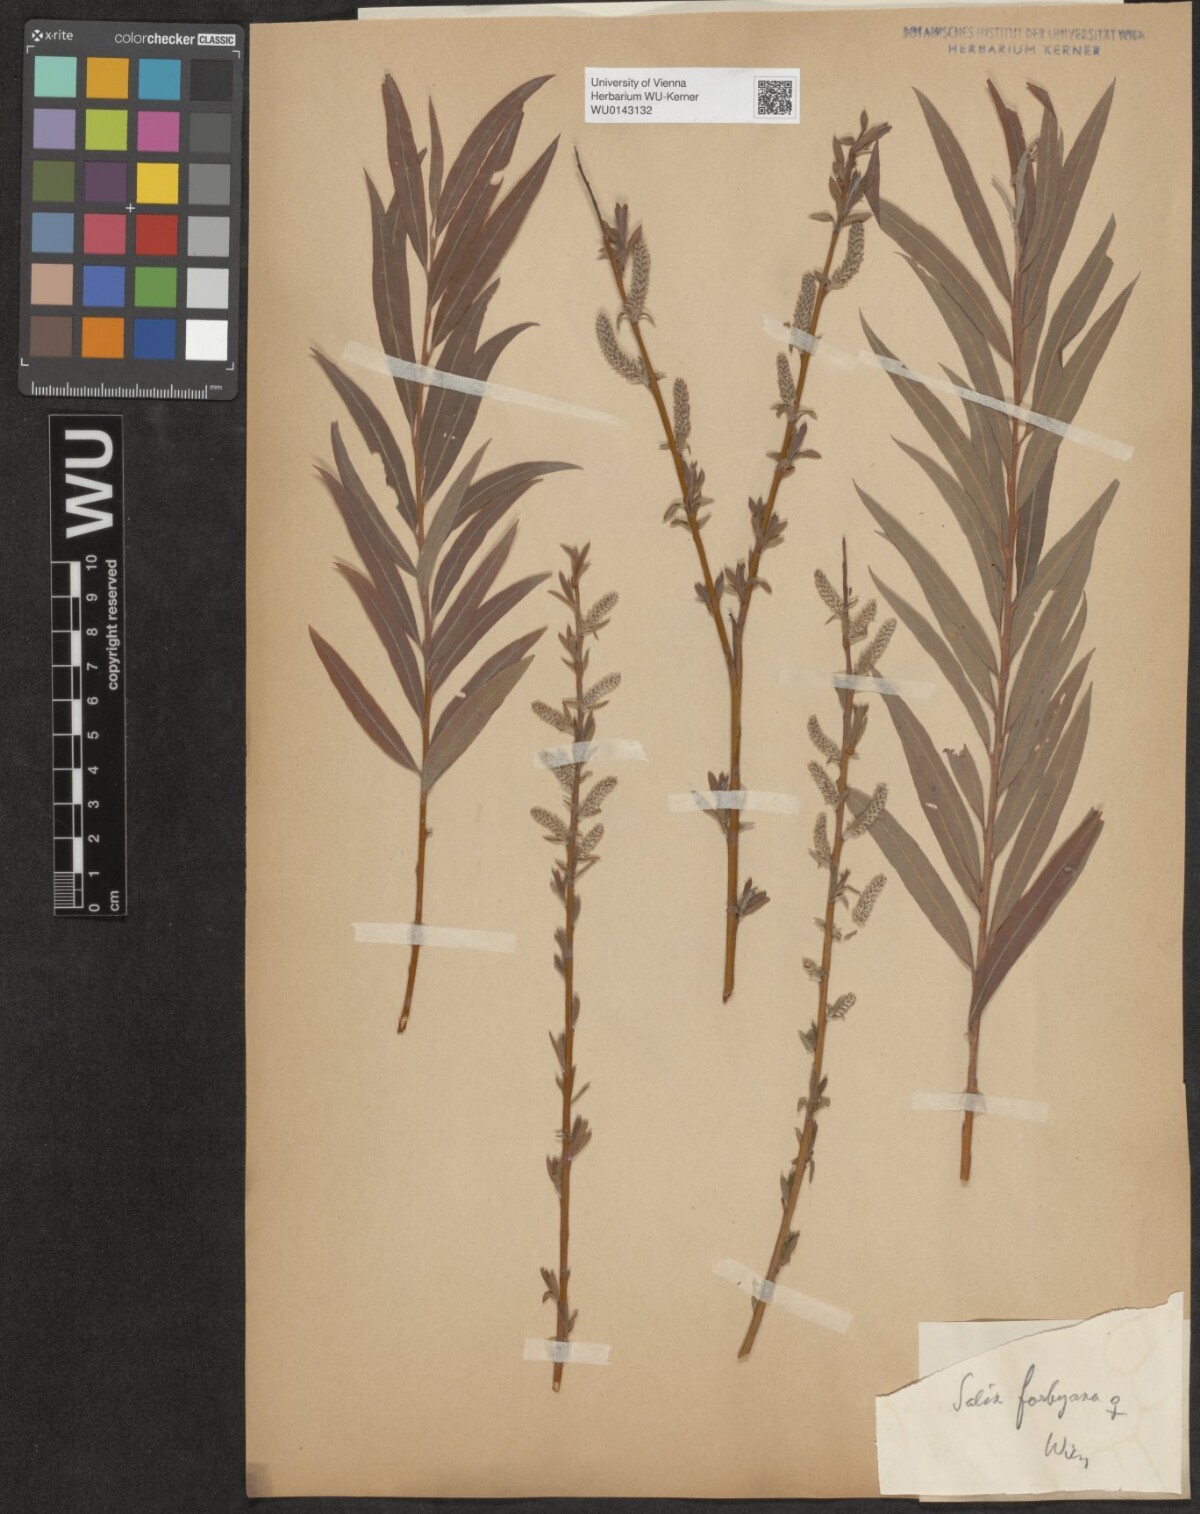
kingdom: Plantae
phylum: Tracheophyta
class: Magnoliopsida
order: Malpighiales
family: Salicaceae
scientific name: Salicaceae
